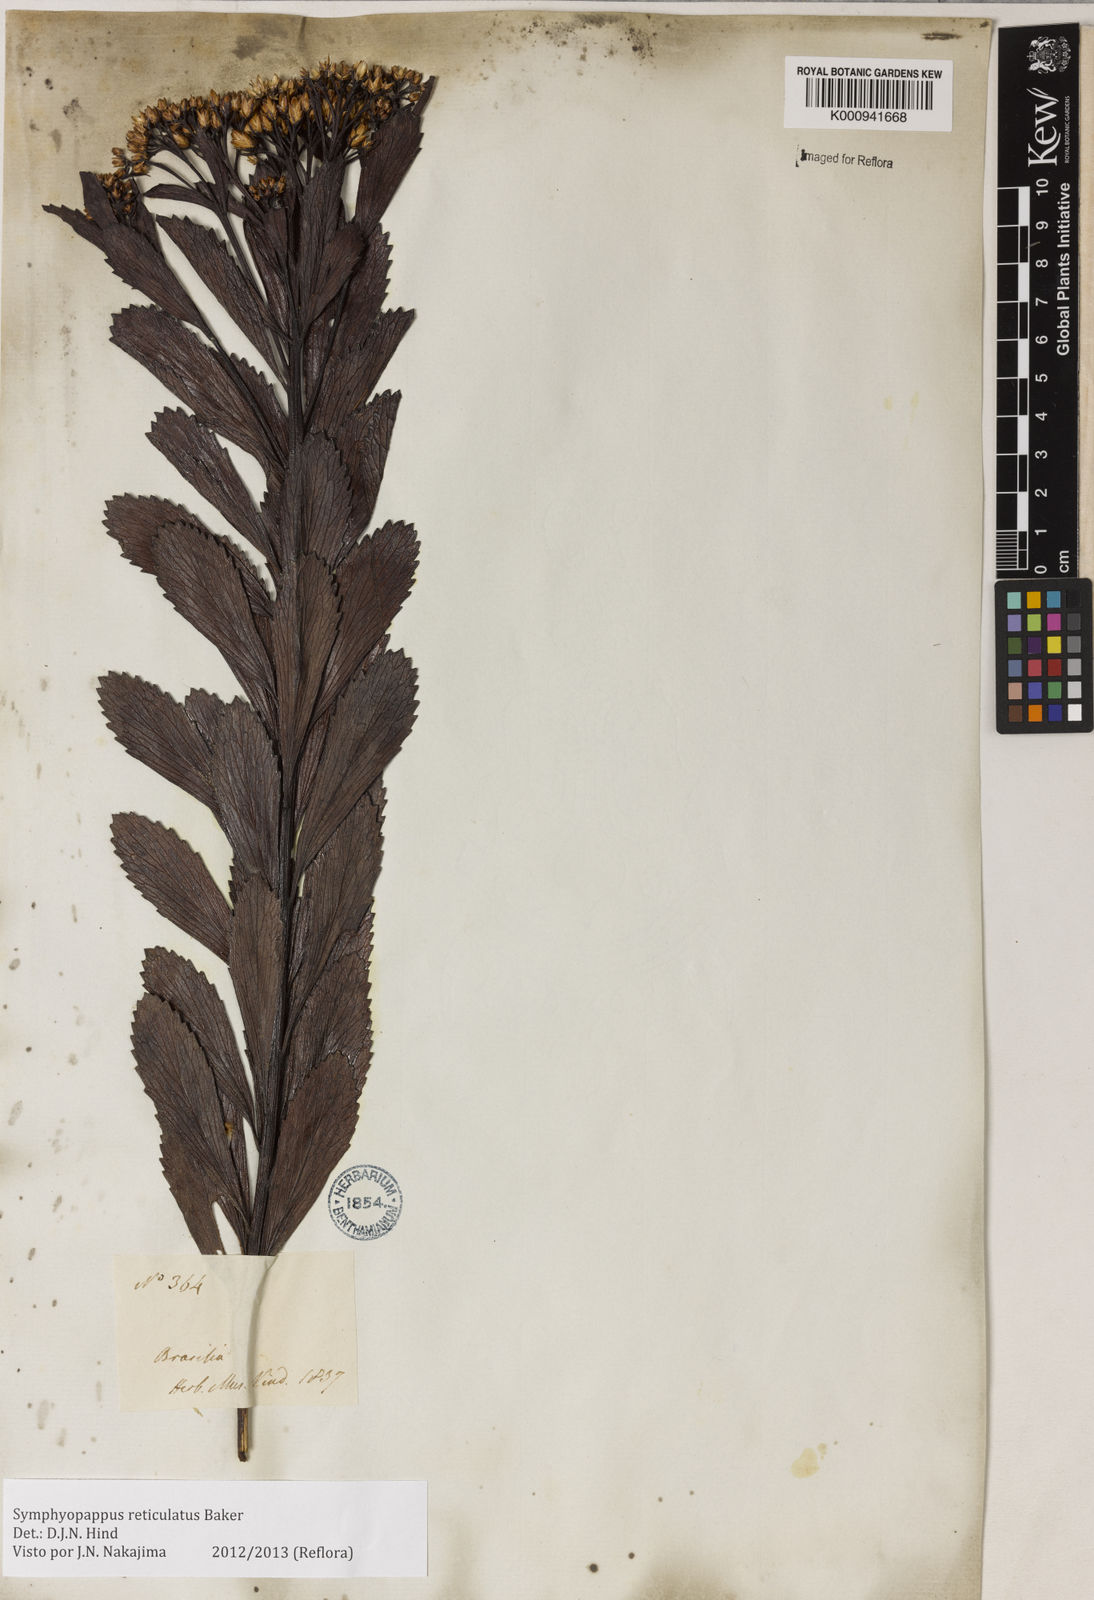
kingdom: Plantae
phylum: Tracheophyta
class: Magnoliopsida
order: Asterales
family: Asteraceae
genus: Symphyopappus
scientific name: Symphyopappus
